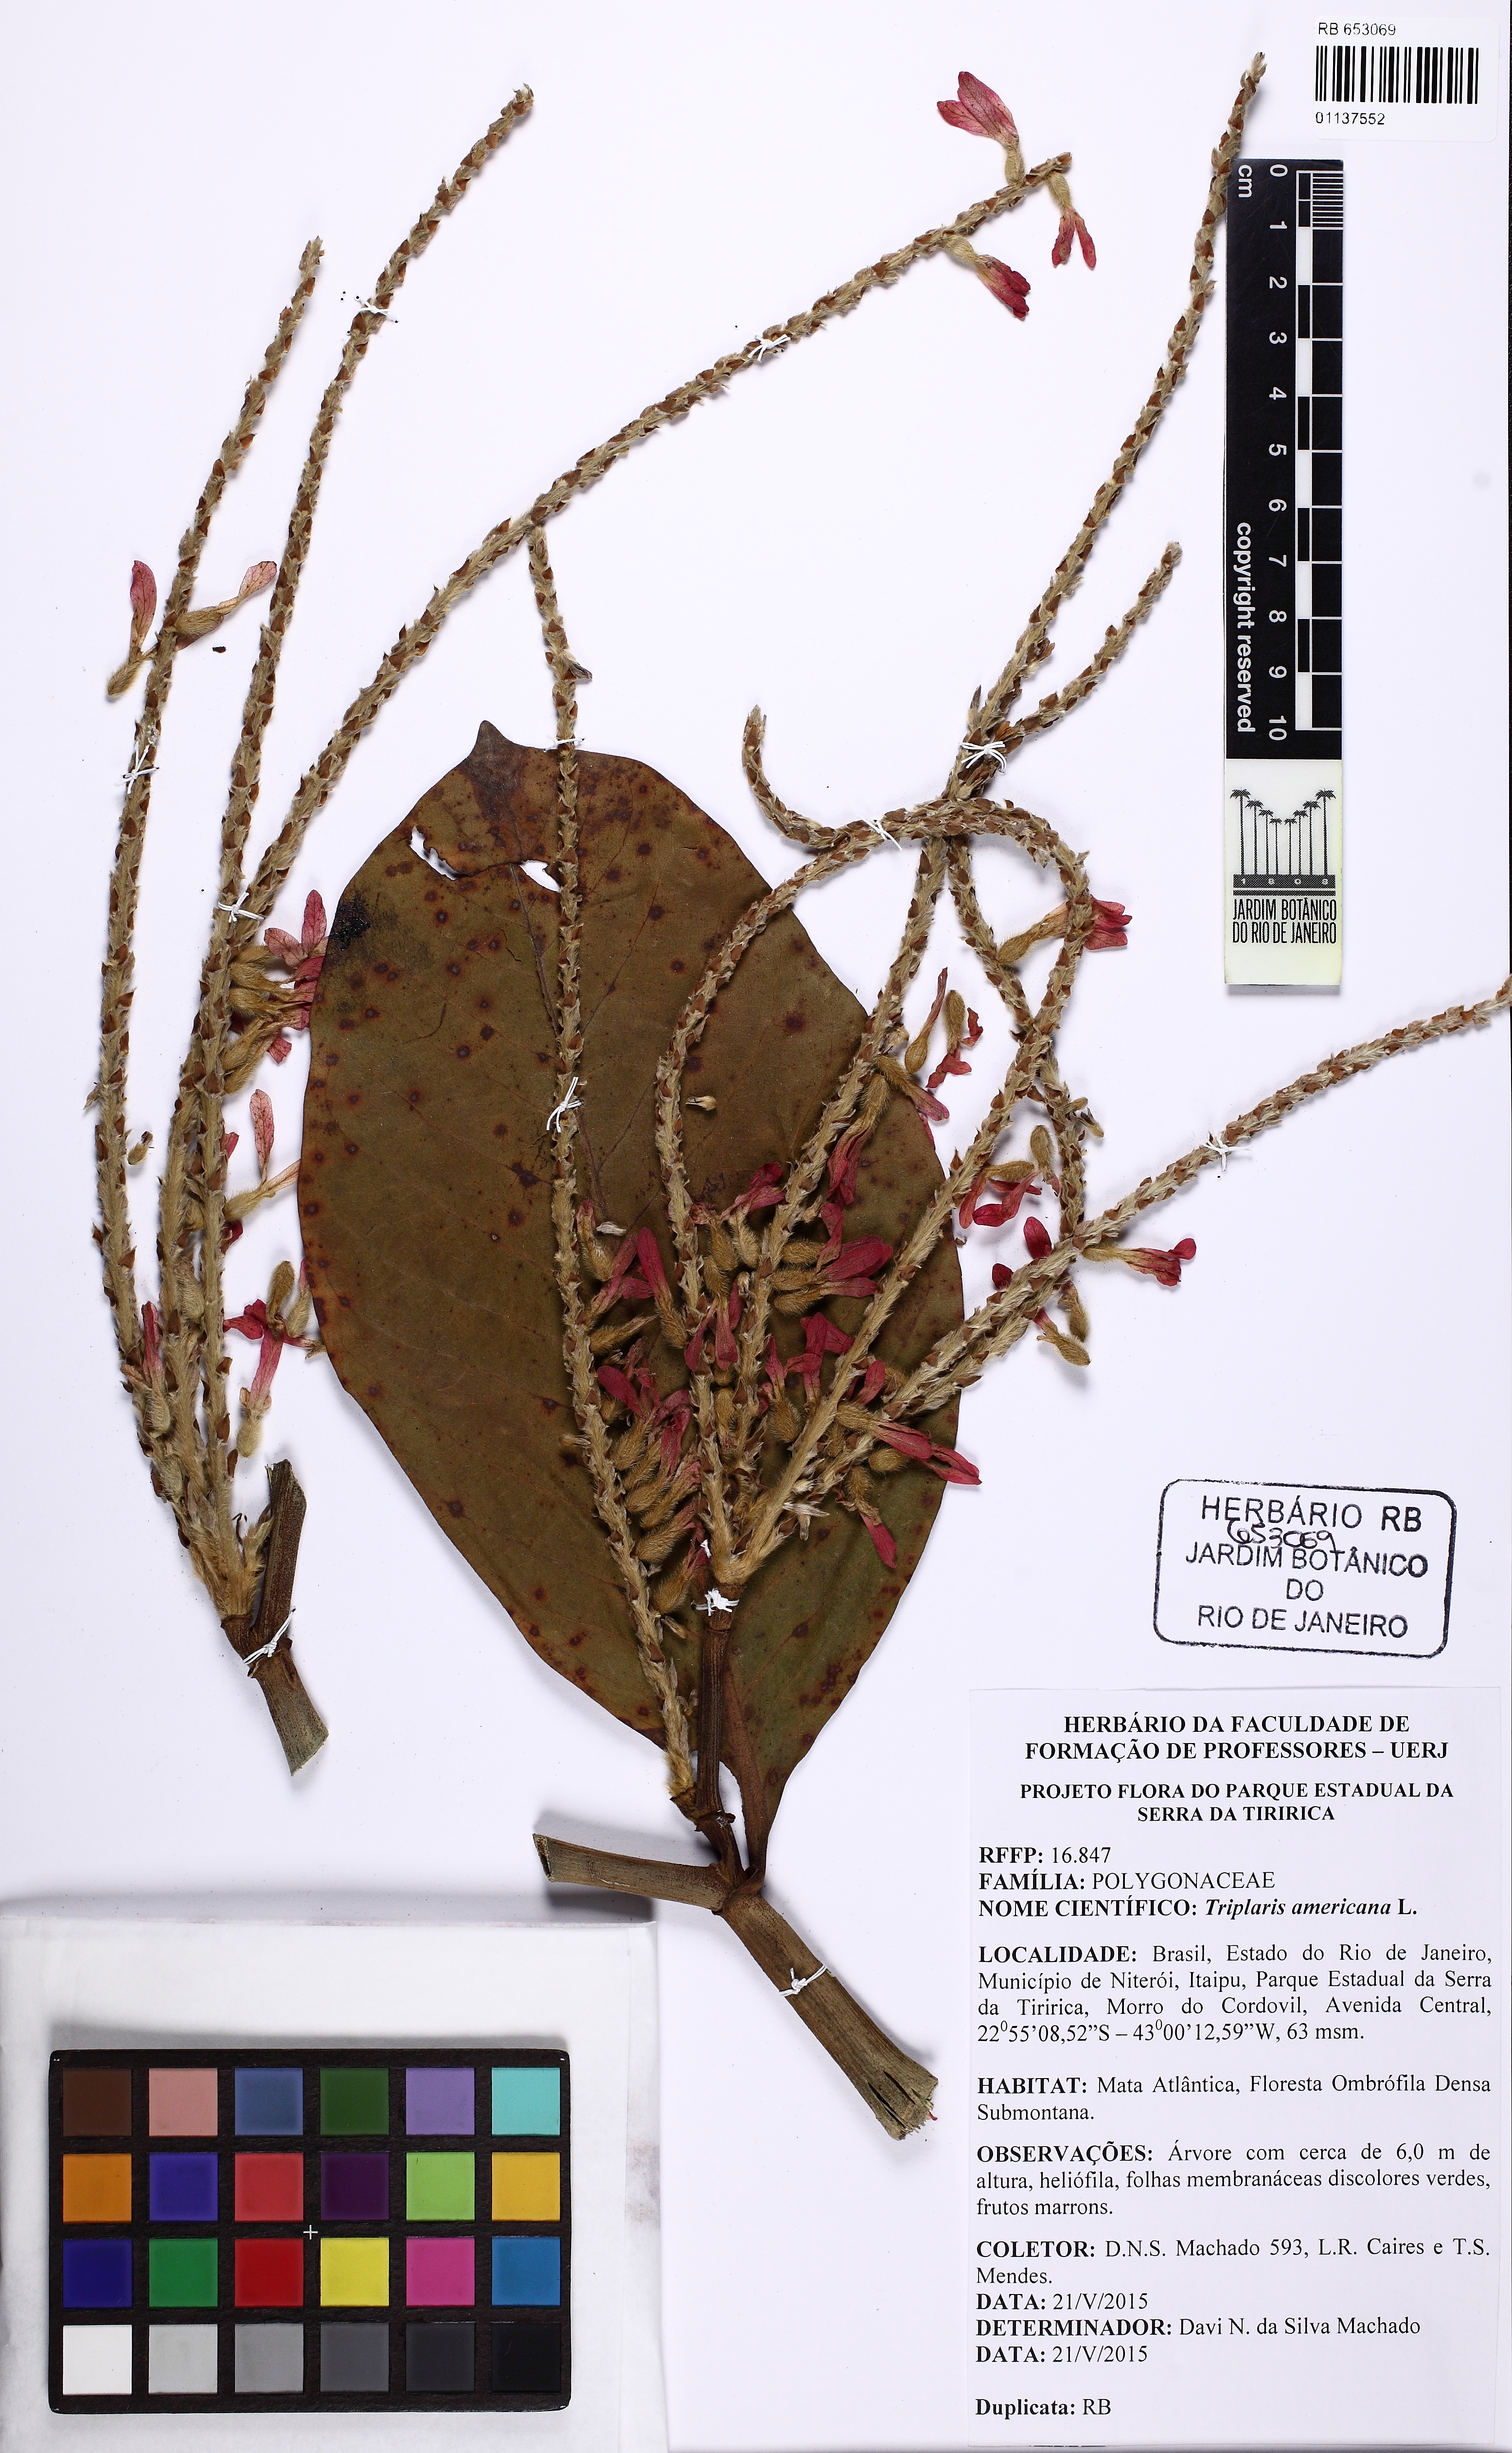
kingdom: Plantae
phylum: Tracheophyta
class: Magnoliopsida
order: Caryophyllales
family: Polygonaceae
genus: Triplaris
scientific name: Triplaris americana
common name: Ant-tree
